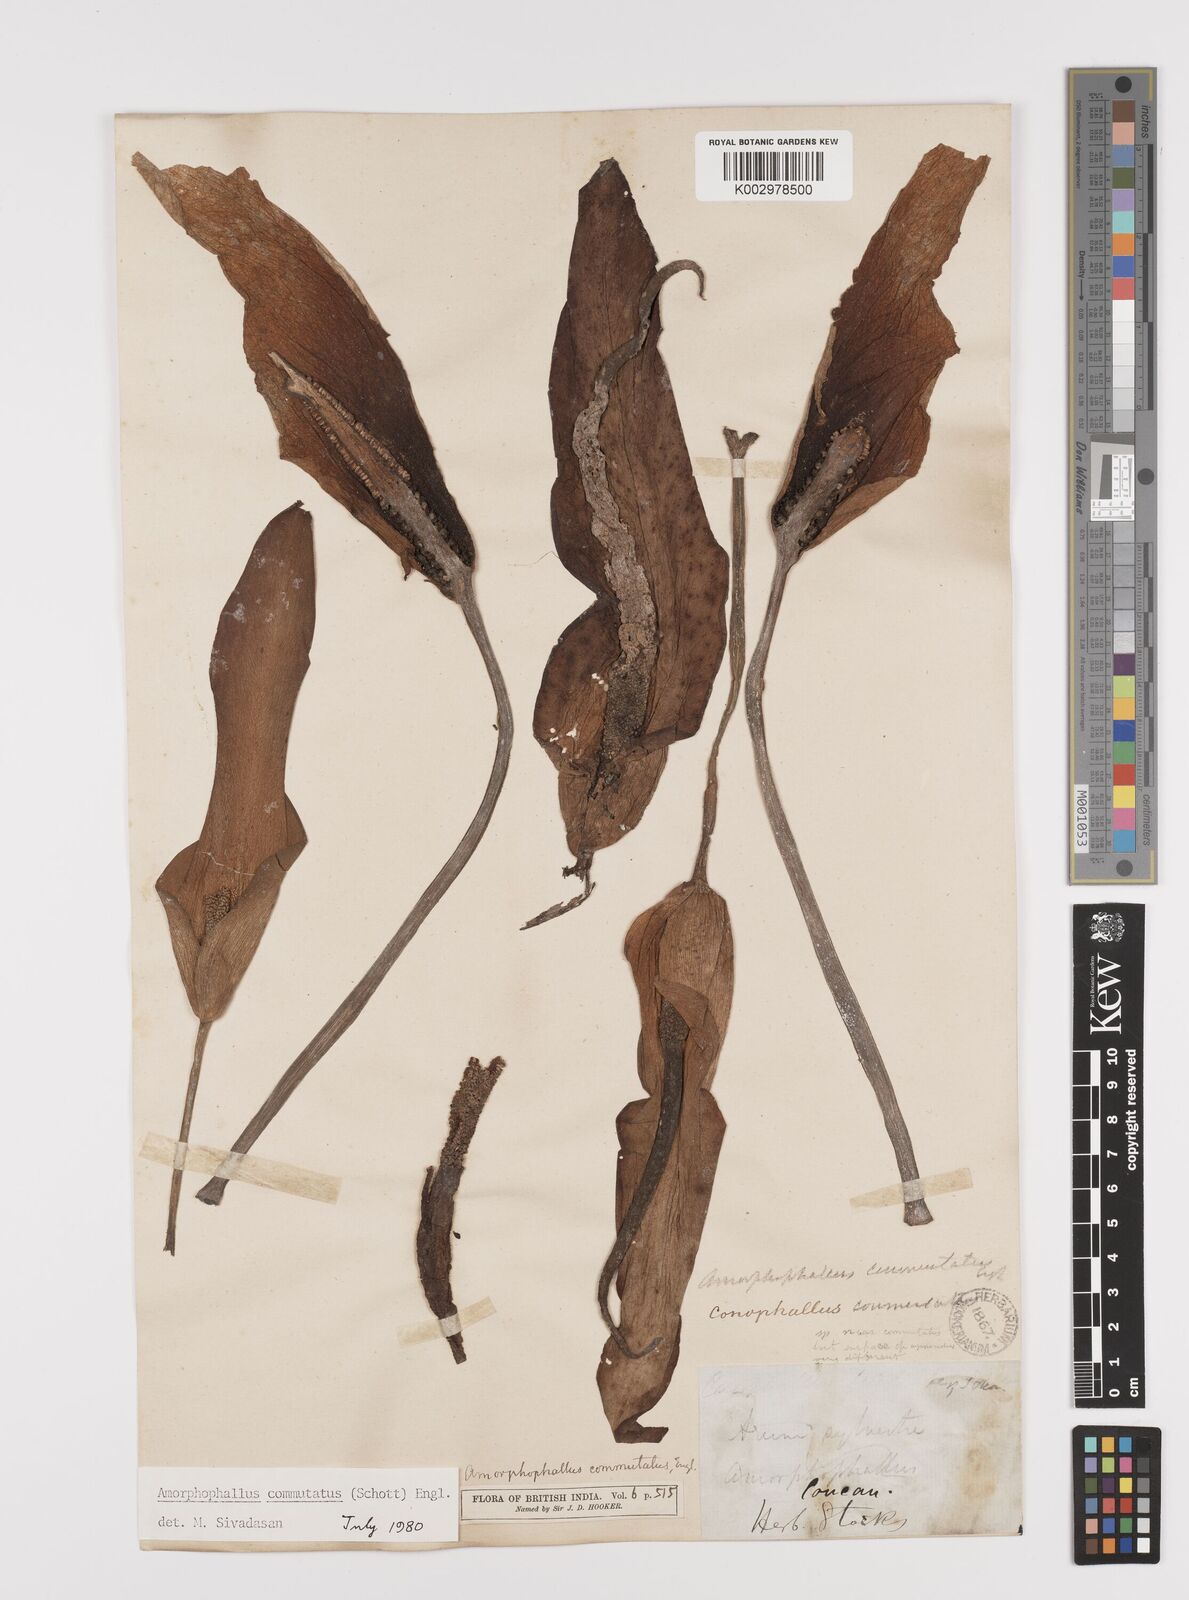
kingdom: Plantae
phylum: Tracheophyta
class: Liliopsida
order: Alismatales
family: Araceae
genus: Amorphophallus
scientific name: Amorphophallus commutatus
